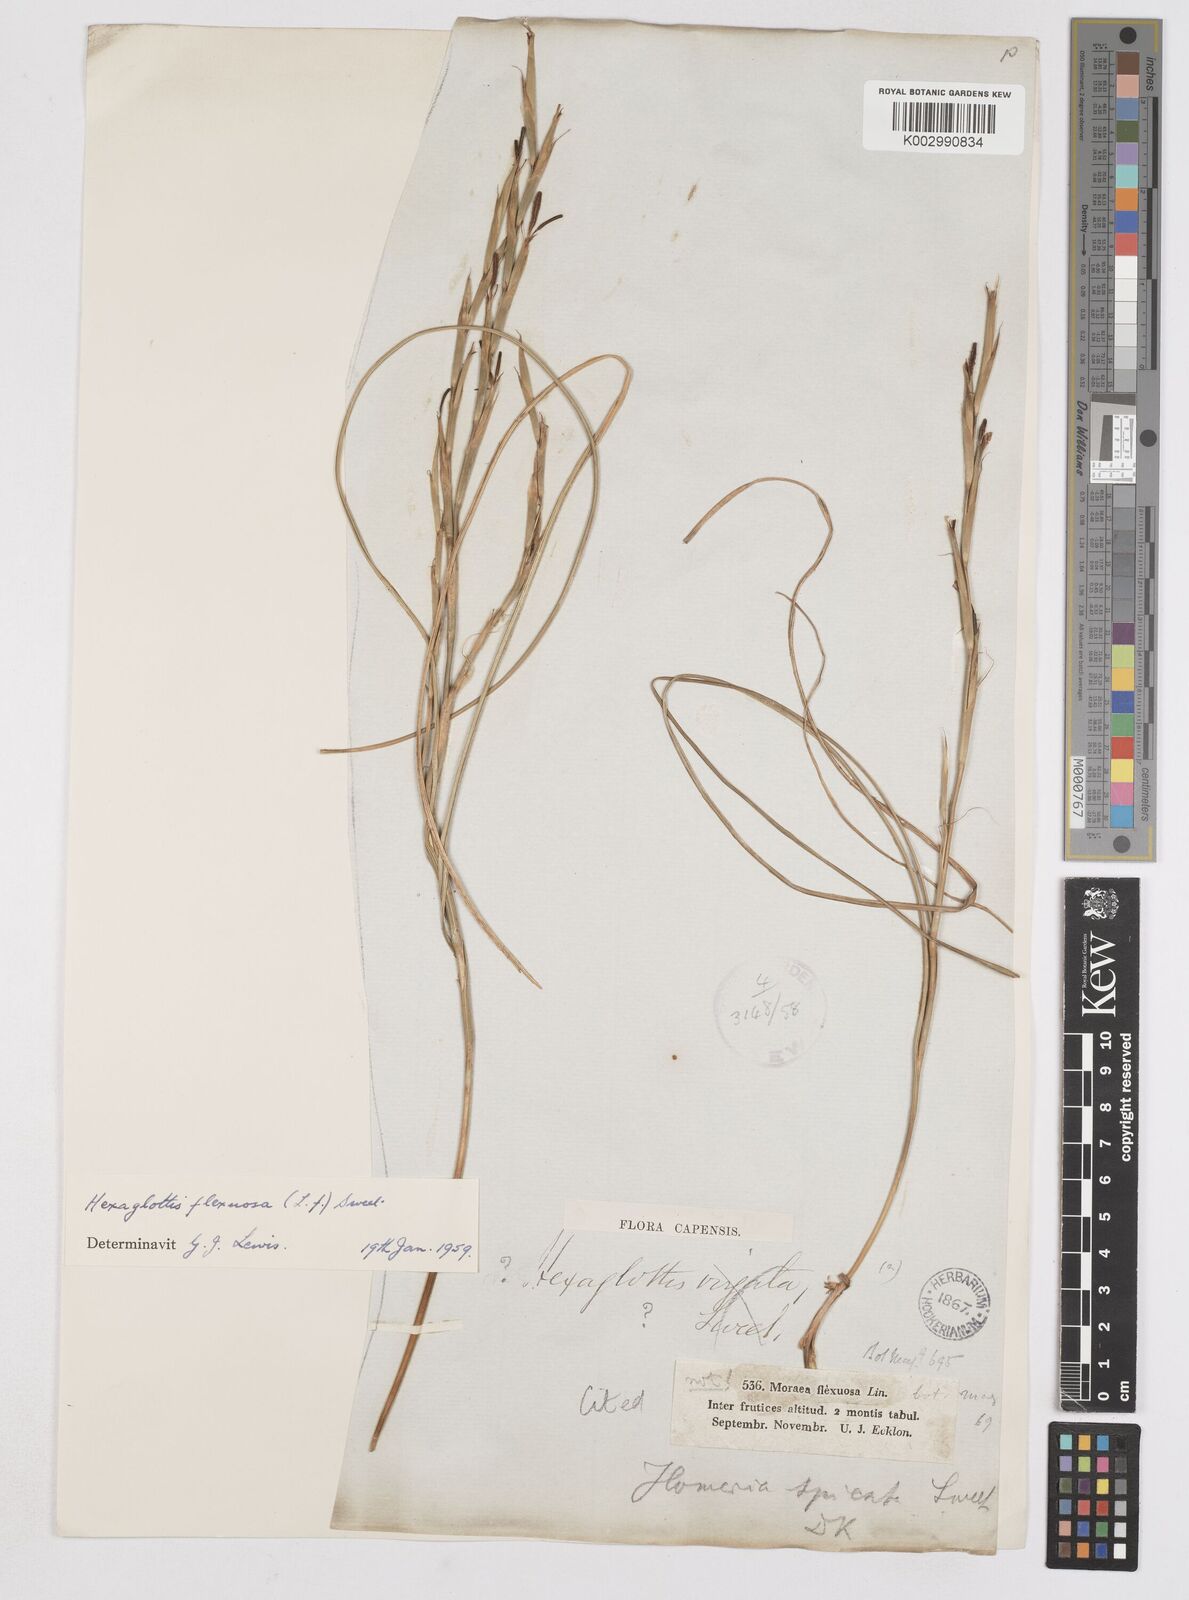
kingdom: Plantae
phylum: Tracheophyta
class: Liliopsida
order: Asparagales
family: Iridaceae
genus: Moraea
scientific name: Moraea lewisiae
